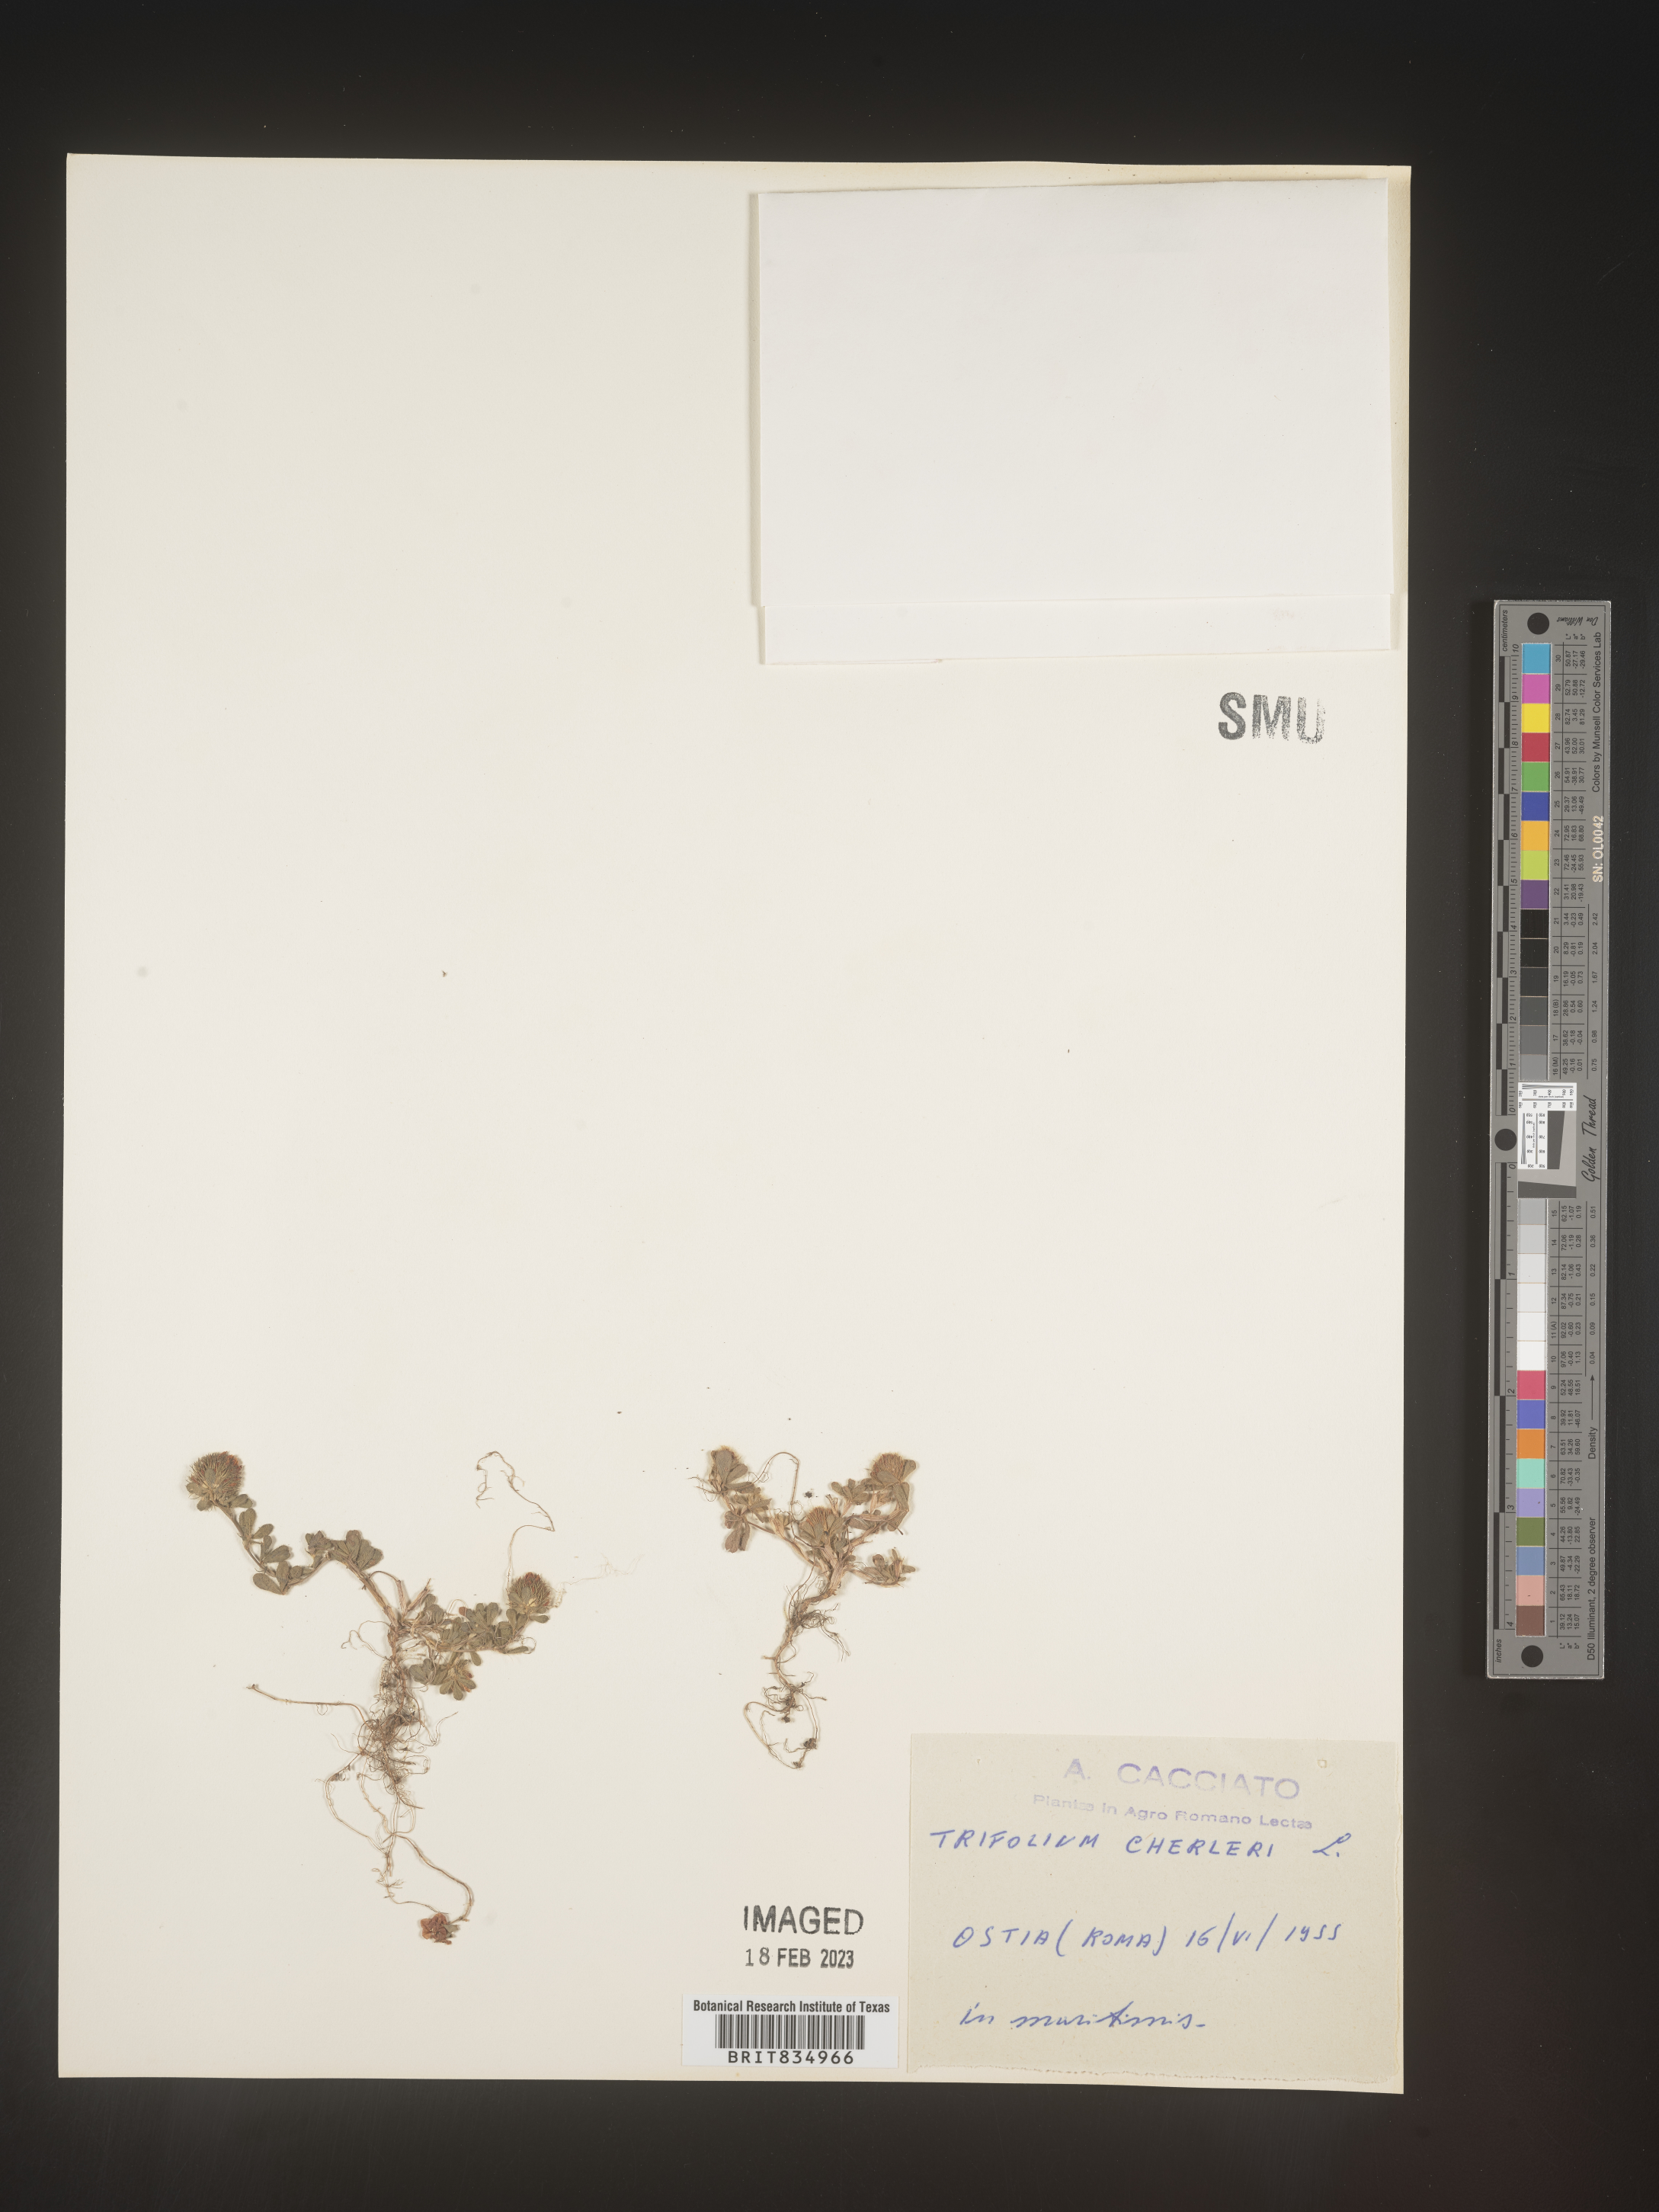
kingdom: Plantae
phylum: Tracheophyta
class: Magnoliopsida
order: Fabales
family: Fabaceae
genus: Trifolium
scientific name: Trifolium
